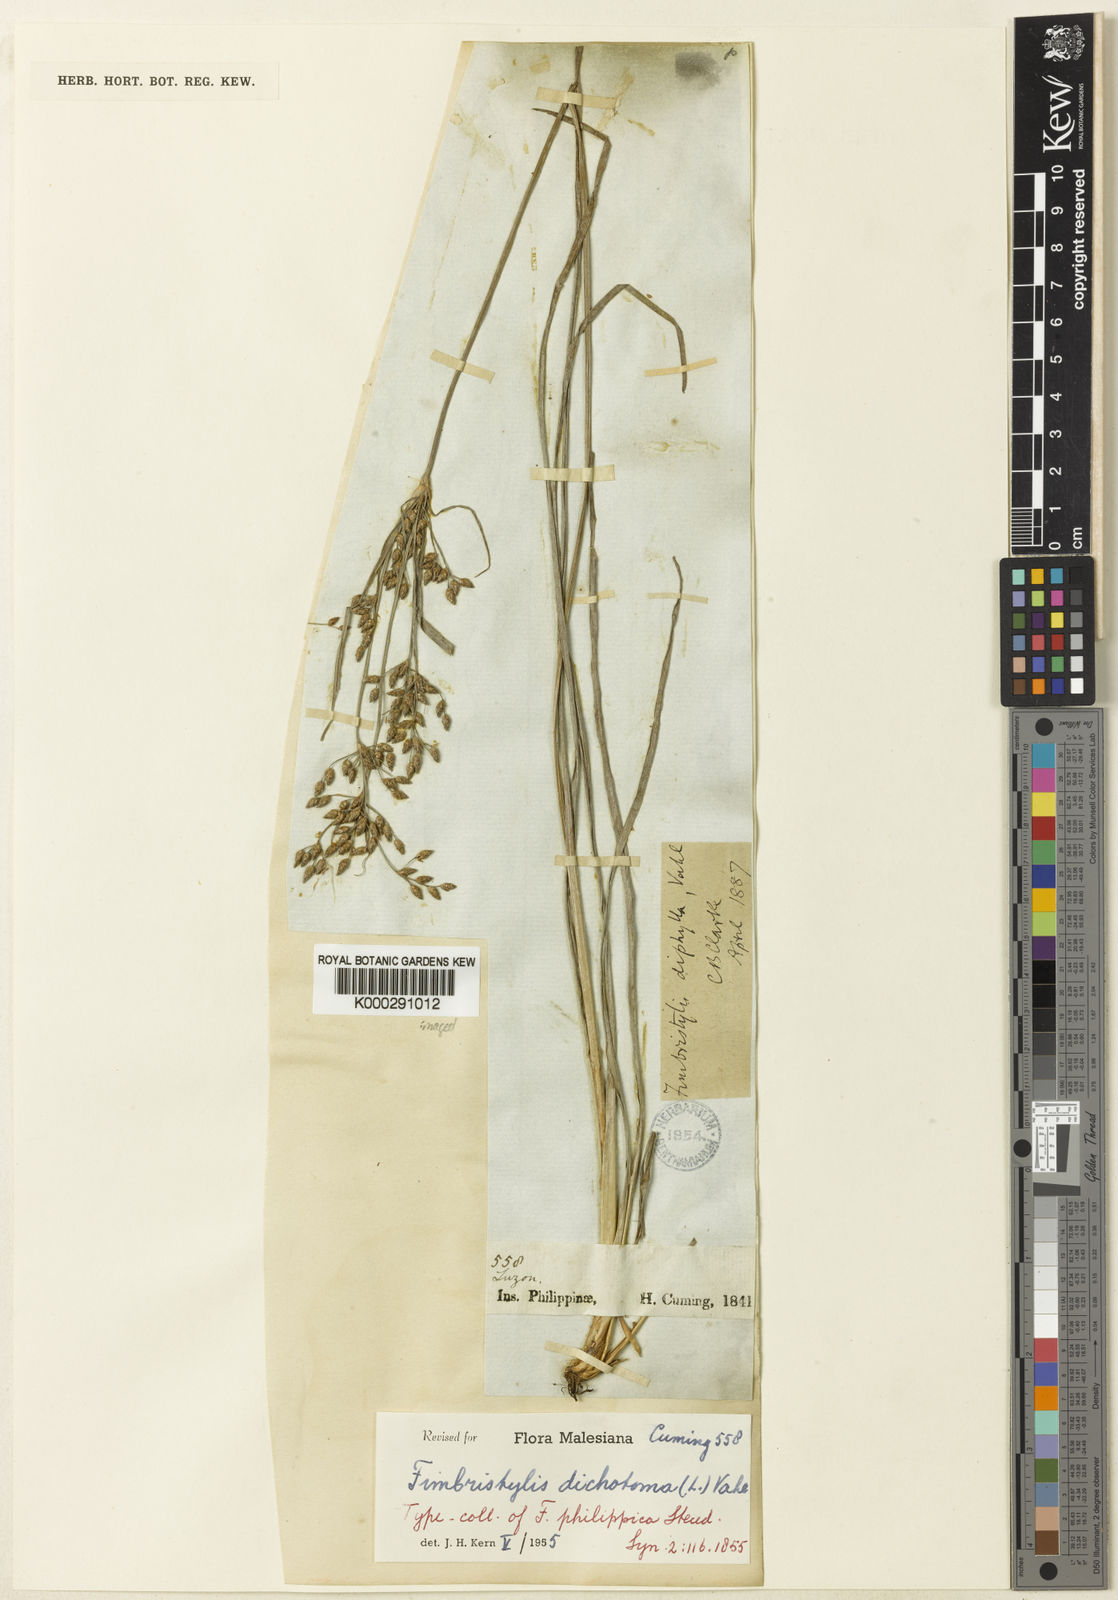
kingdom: Plantae
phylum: Tracheophyta
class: Liliopsida
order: Poales
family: Cyperaceae
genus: Fimbristylis
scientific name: Fimbristylis dichotoma
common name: Forked fimbry
